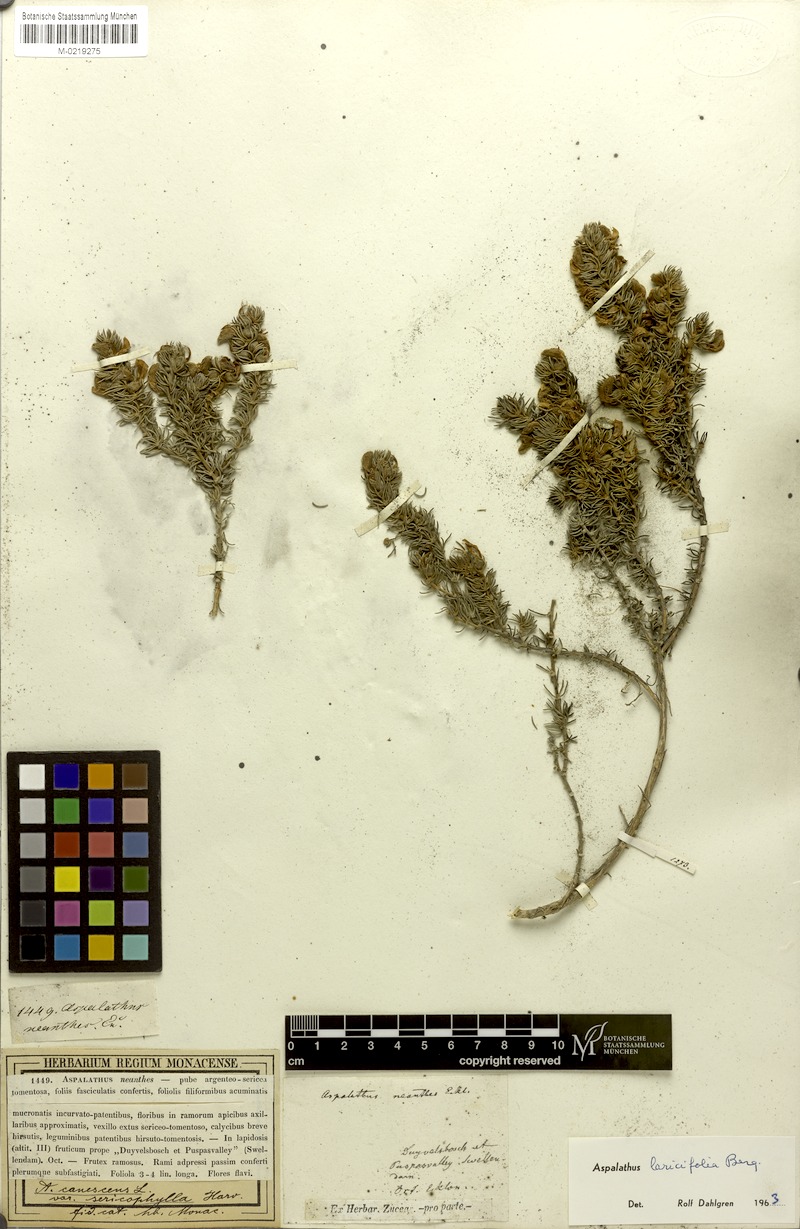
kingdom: Plantae
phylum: Tracheophyta
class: Magnoliopsida
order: Fabales
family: Fabaceae
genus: Aspalathus
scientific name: Aspalathus laricifolia
